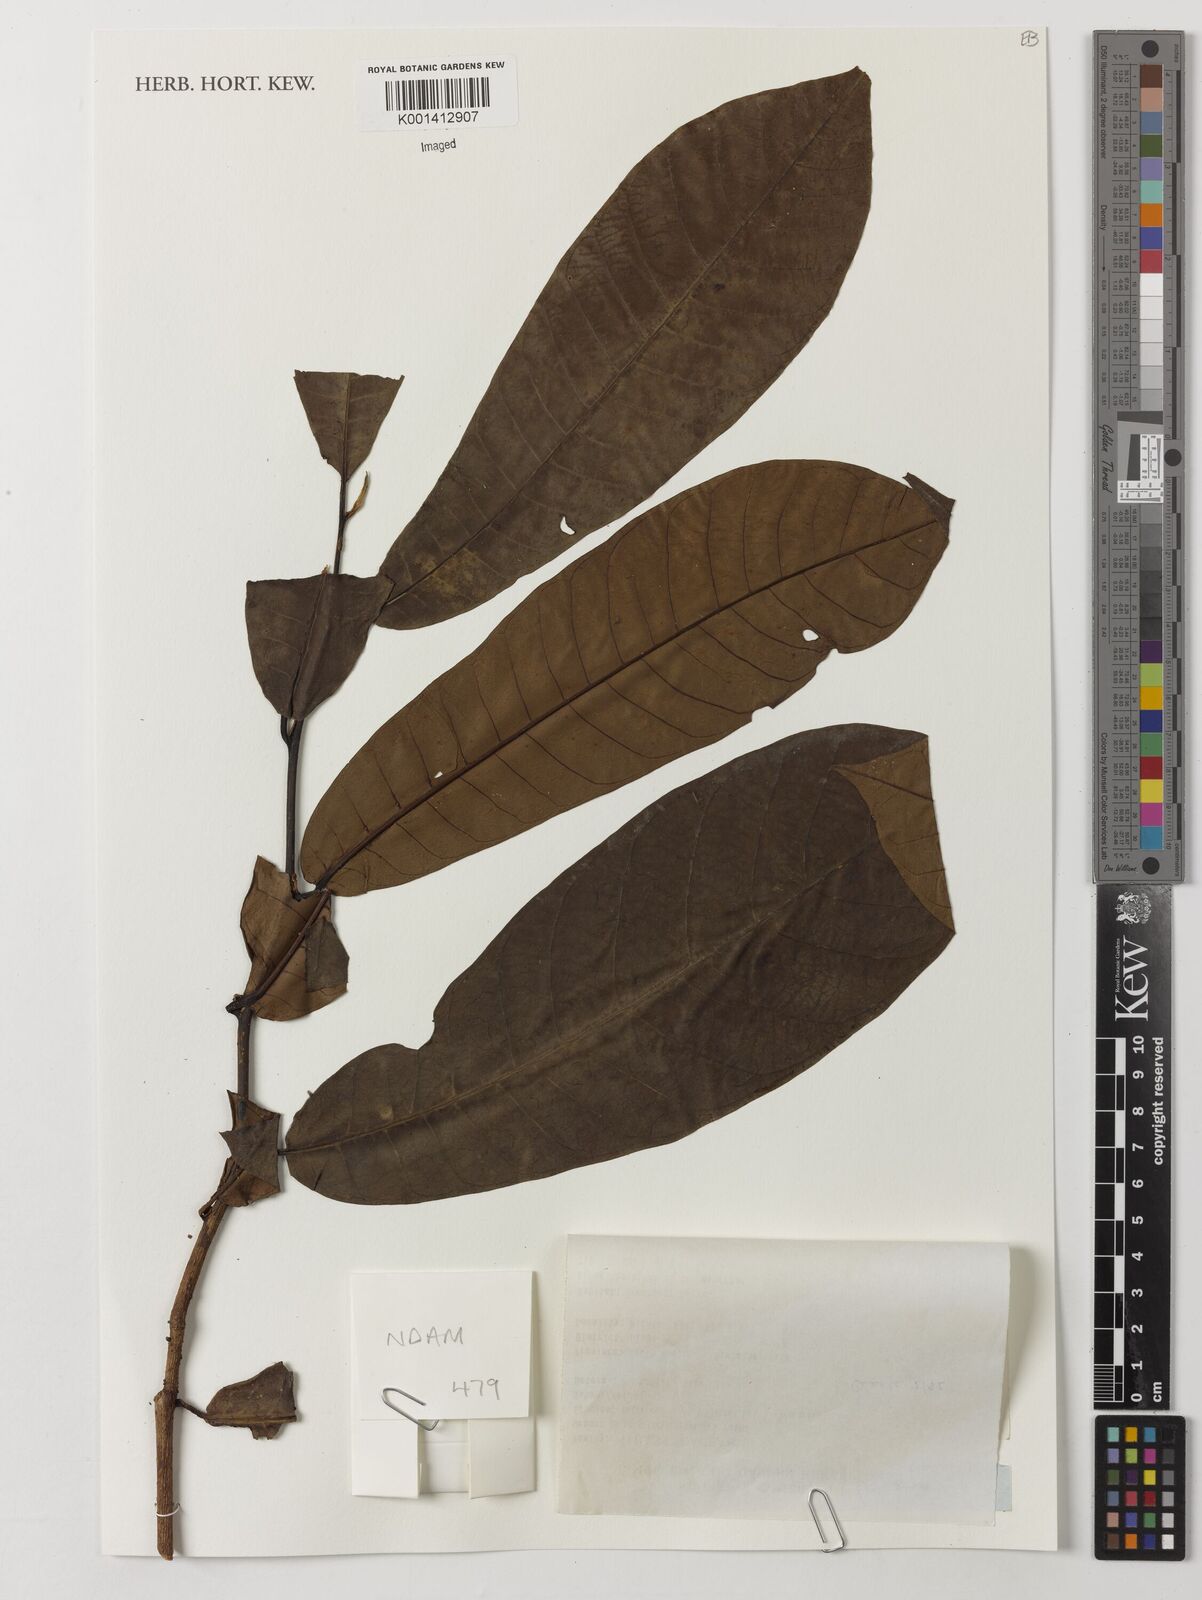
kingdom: Plantae
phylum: Tracheophyta
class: Magnoliopsida
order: Magnoliales
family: Myristicaceae
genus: Scyphocephalum
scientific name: Scyphocephalum mannii
